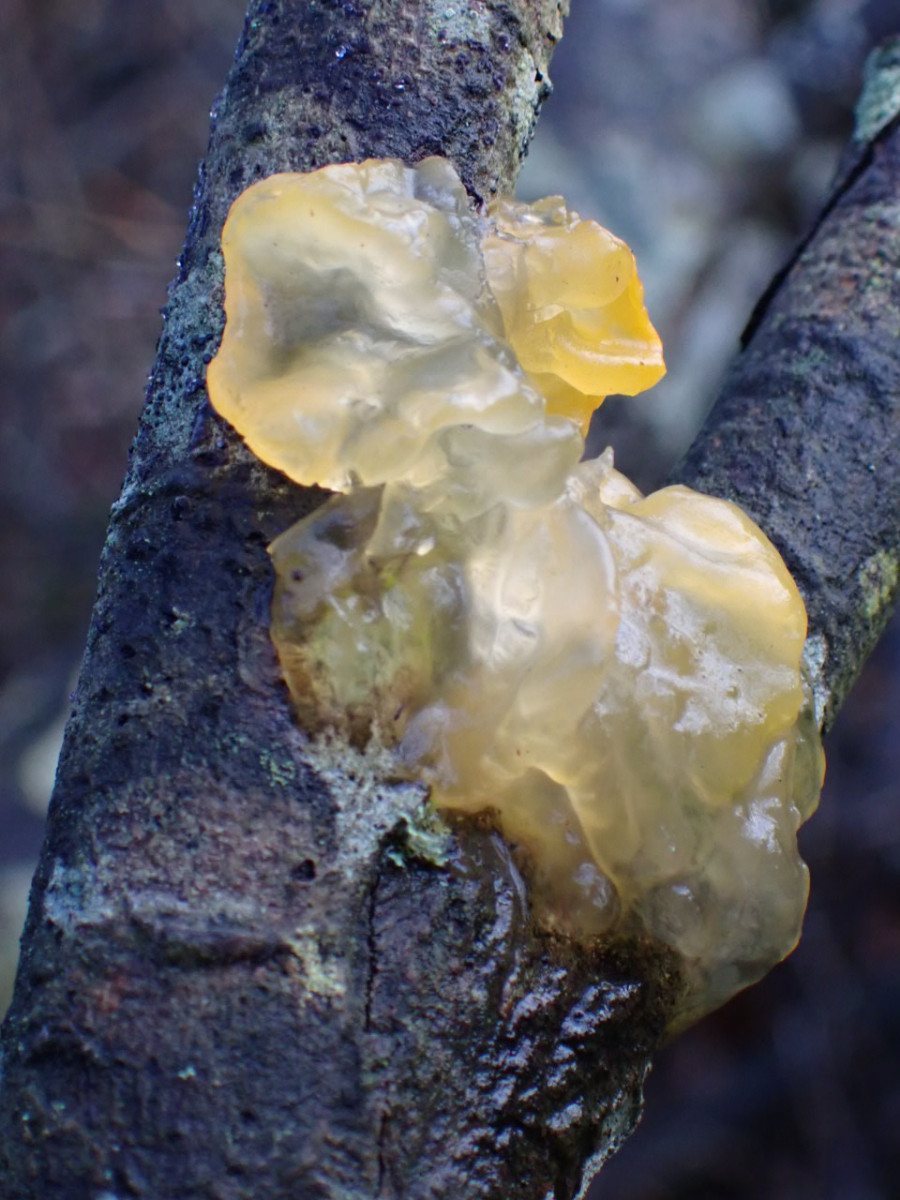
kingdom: Fungi
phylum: Basidiomycota
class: Tremellomycetes
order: Tremellales
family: Tremellaceae
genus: Tremella
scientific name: Tremella mesenterica
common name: gul bævresvamp
